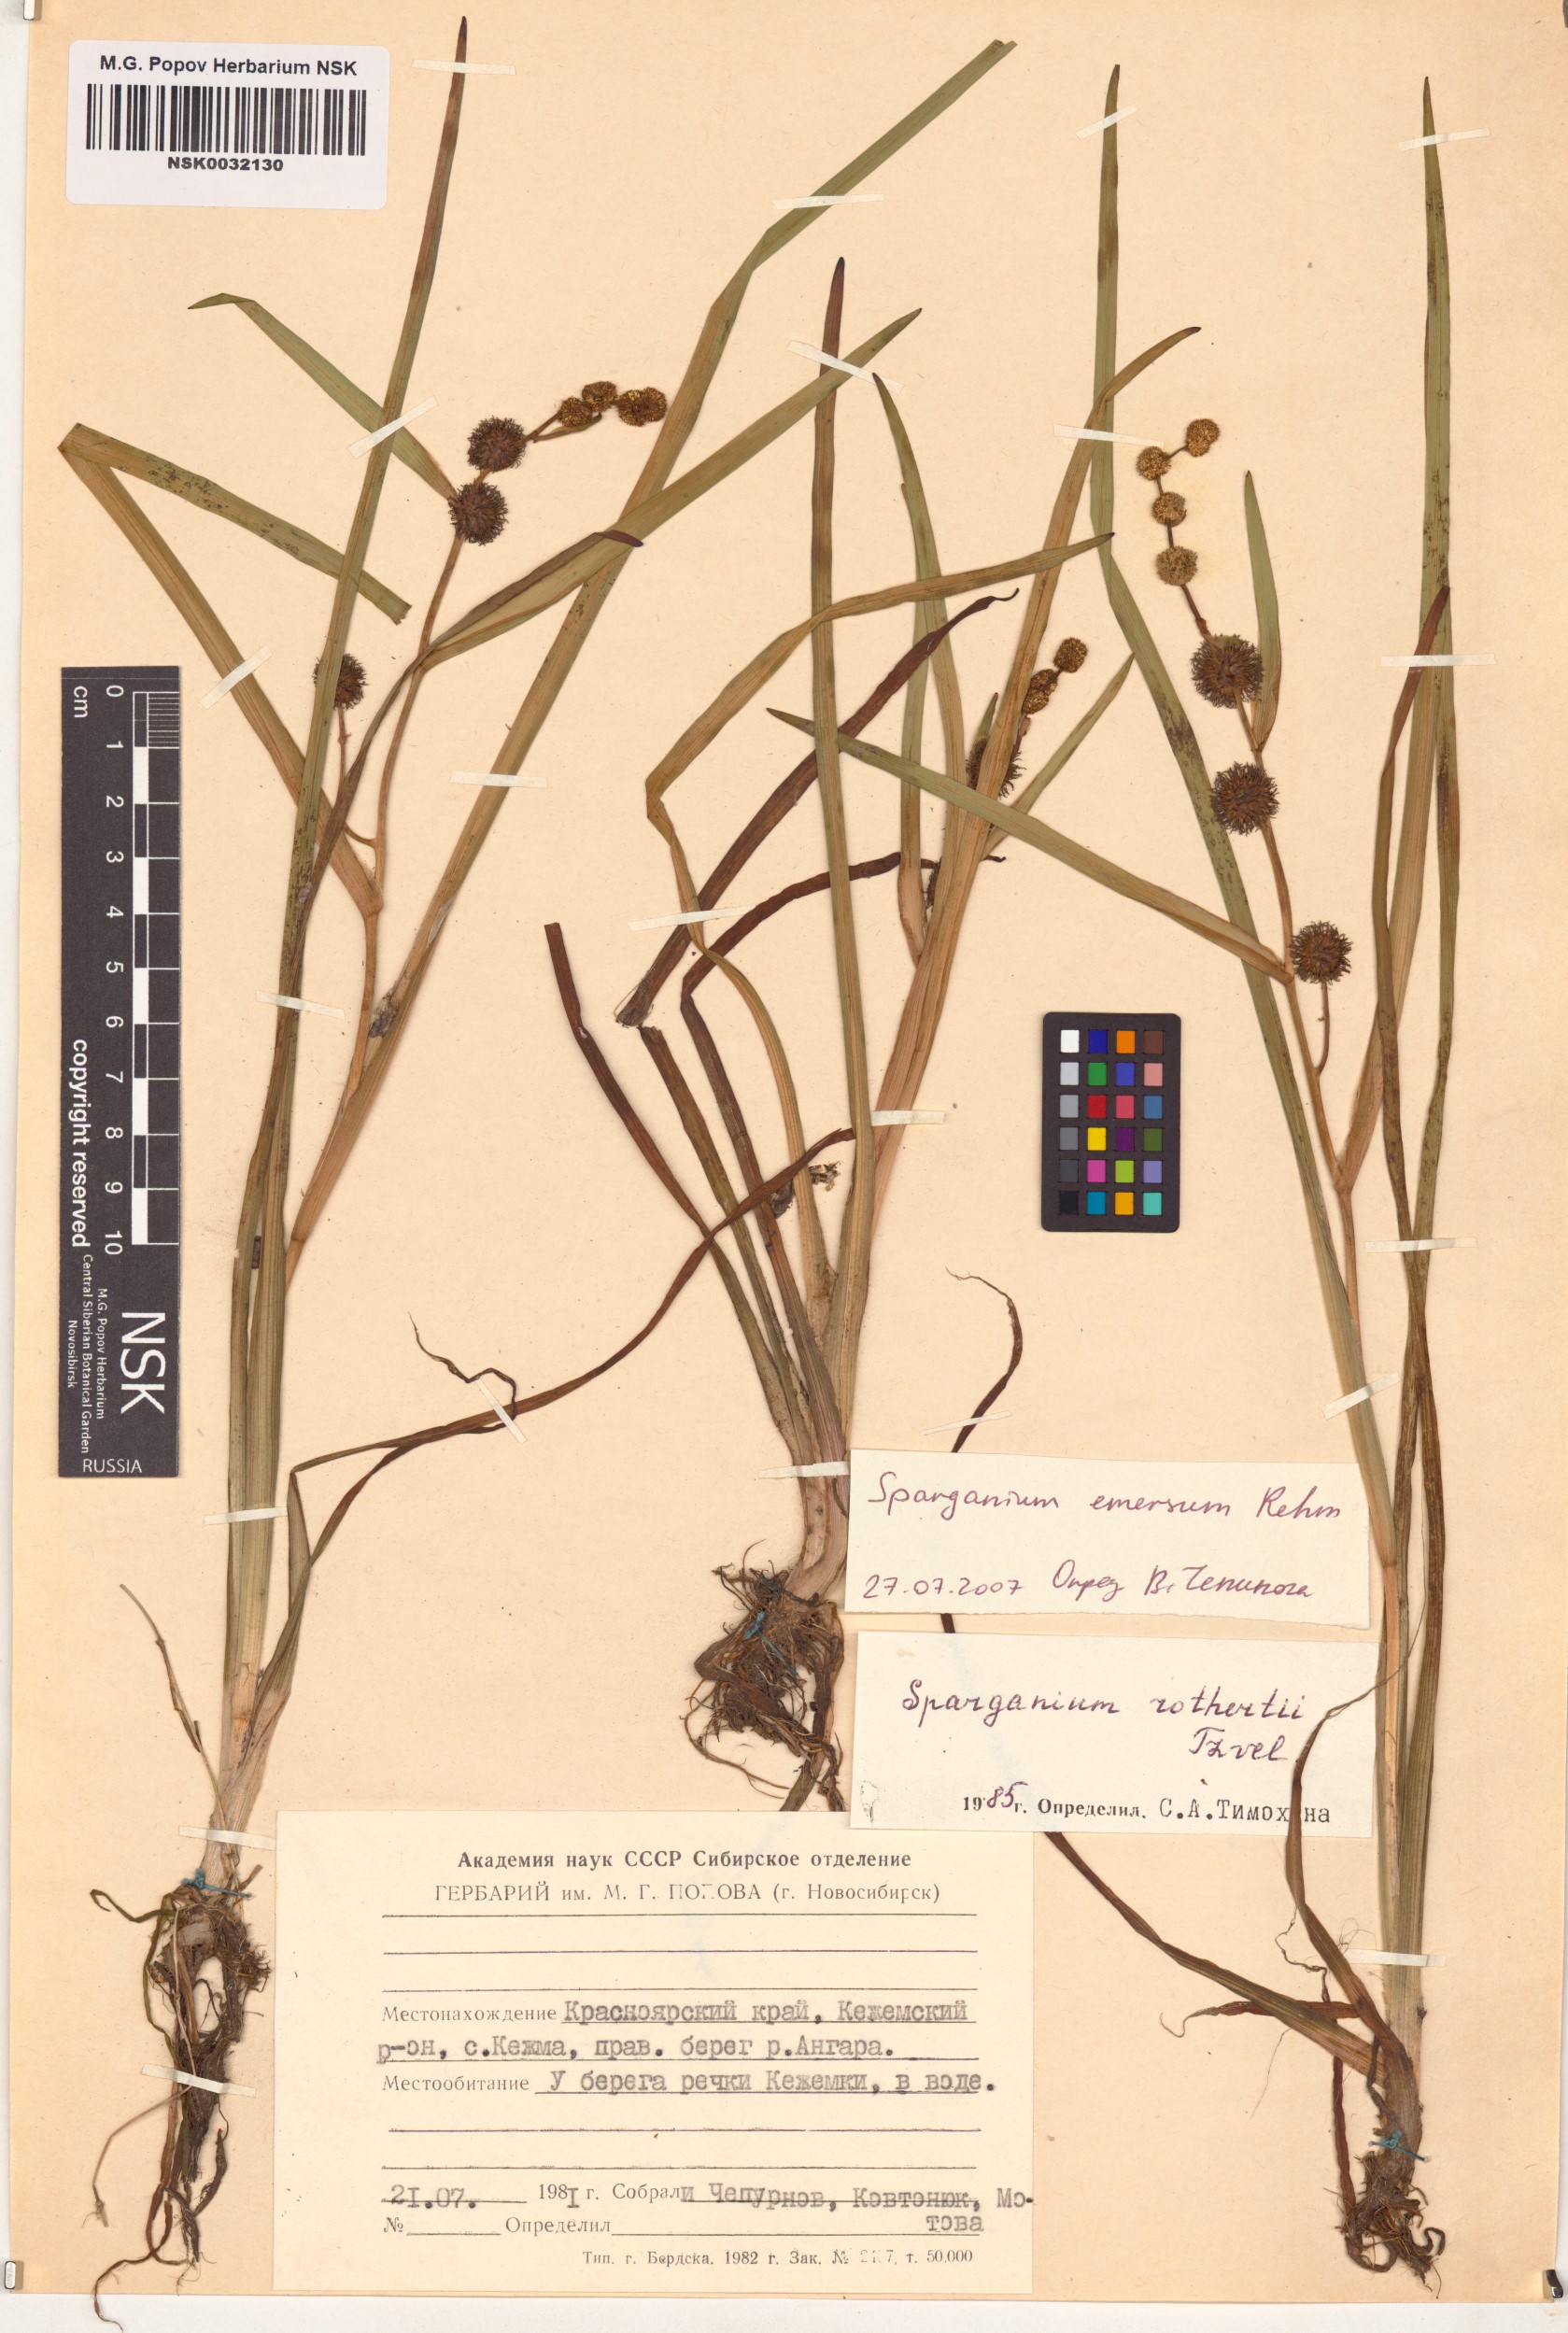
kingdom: Plantae
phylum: Tracheophyta
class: Liliopsida
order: Poales
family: Typhaceae
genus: Sparganium
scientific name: Sparganium emersum
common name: Unbranched bur-reed
